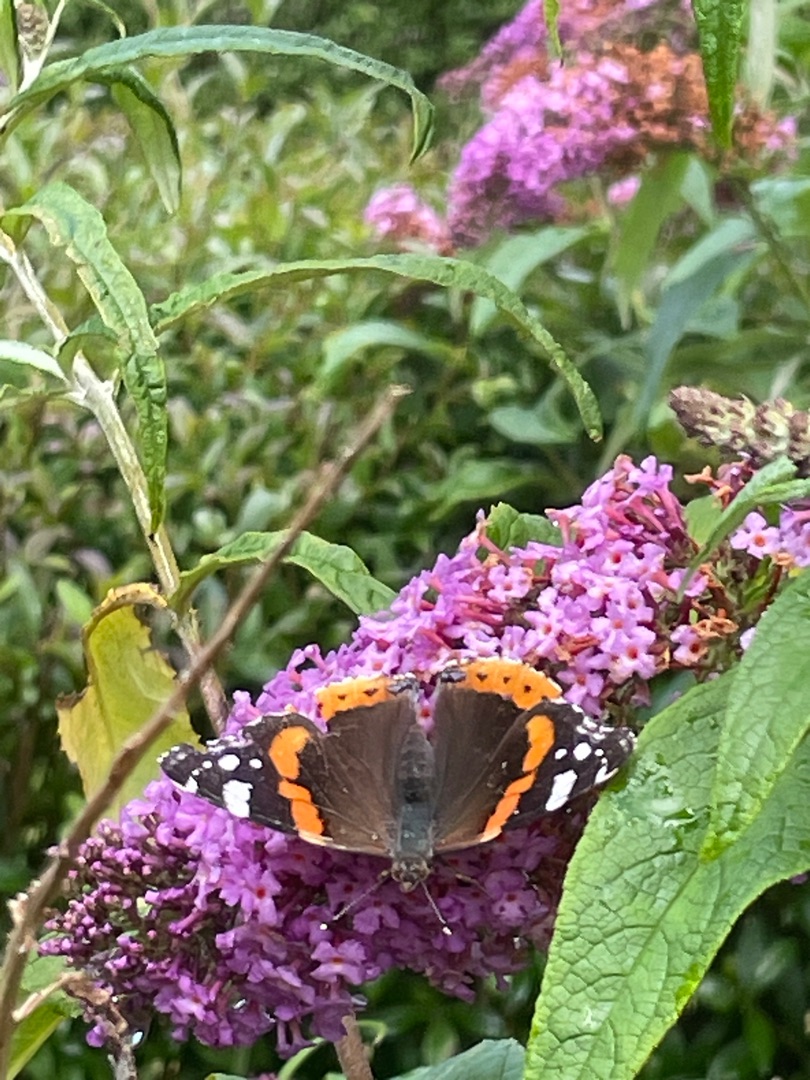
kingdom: Animalia
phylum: Arthropoda
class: Insecta
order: Lepidoptera
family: Nymphalidae
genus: Vanessa
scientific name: Vanessa atalanta
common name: Admiral
